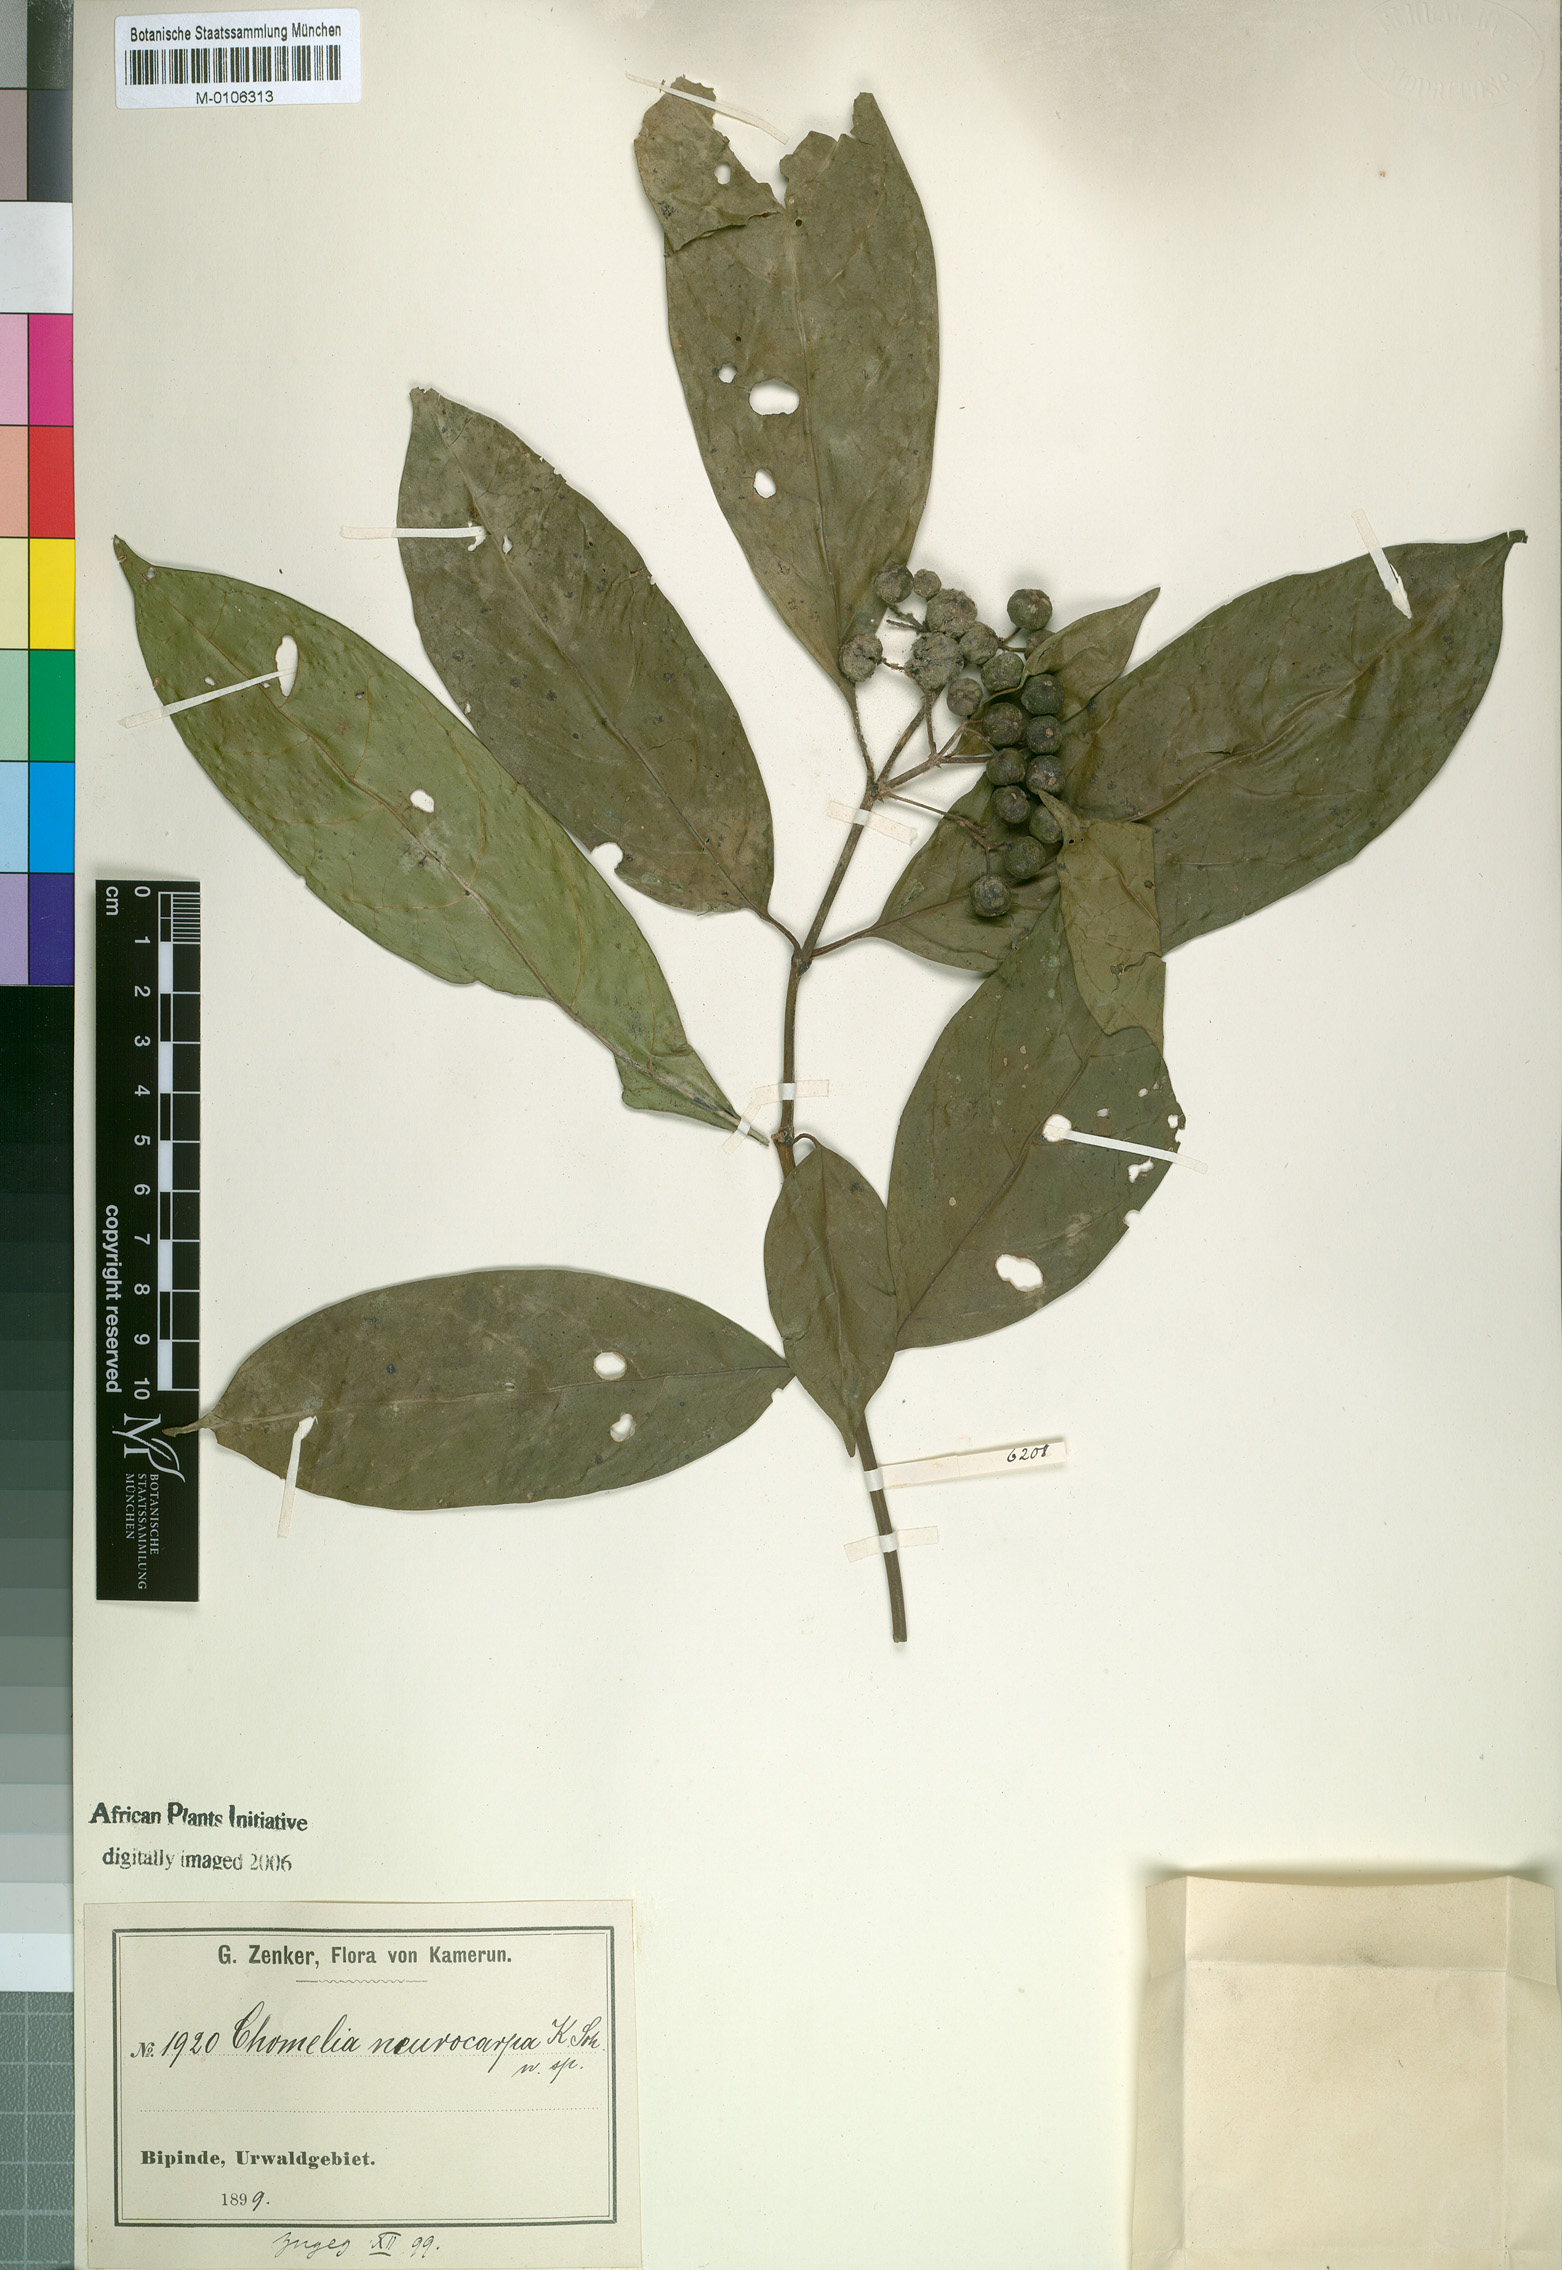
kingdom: Plantae
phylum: Tracheophyta
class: Magnoliopsida
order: Gentianales
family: Rubiaceae
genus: Tarenna
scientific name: Tarenna grandiflora
